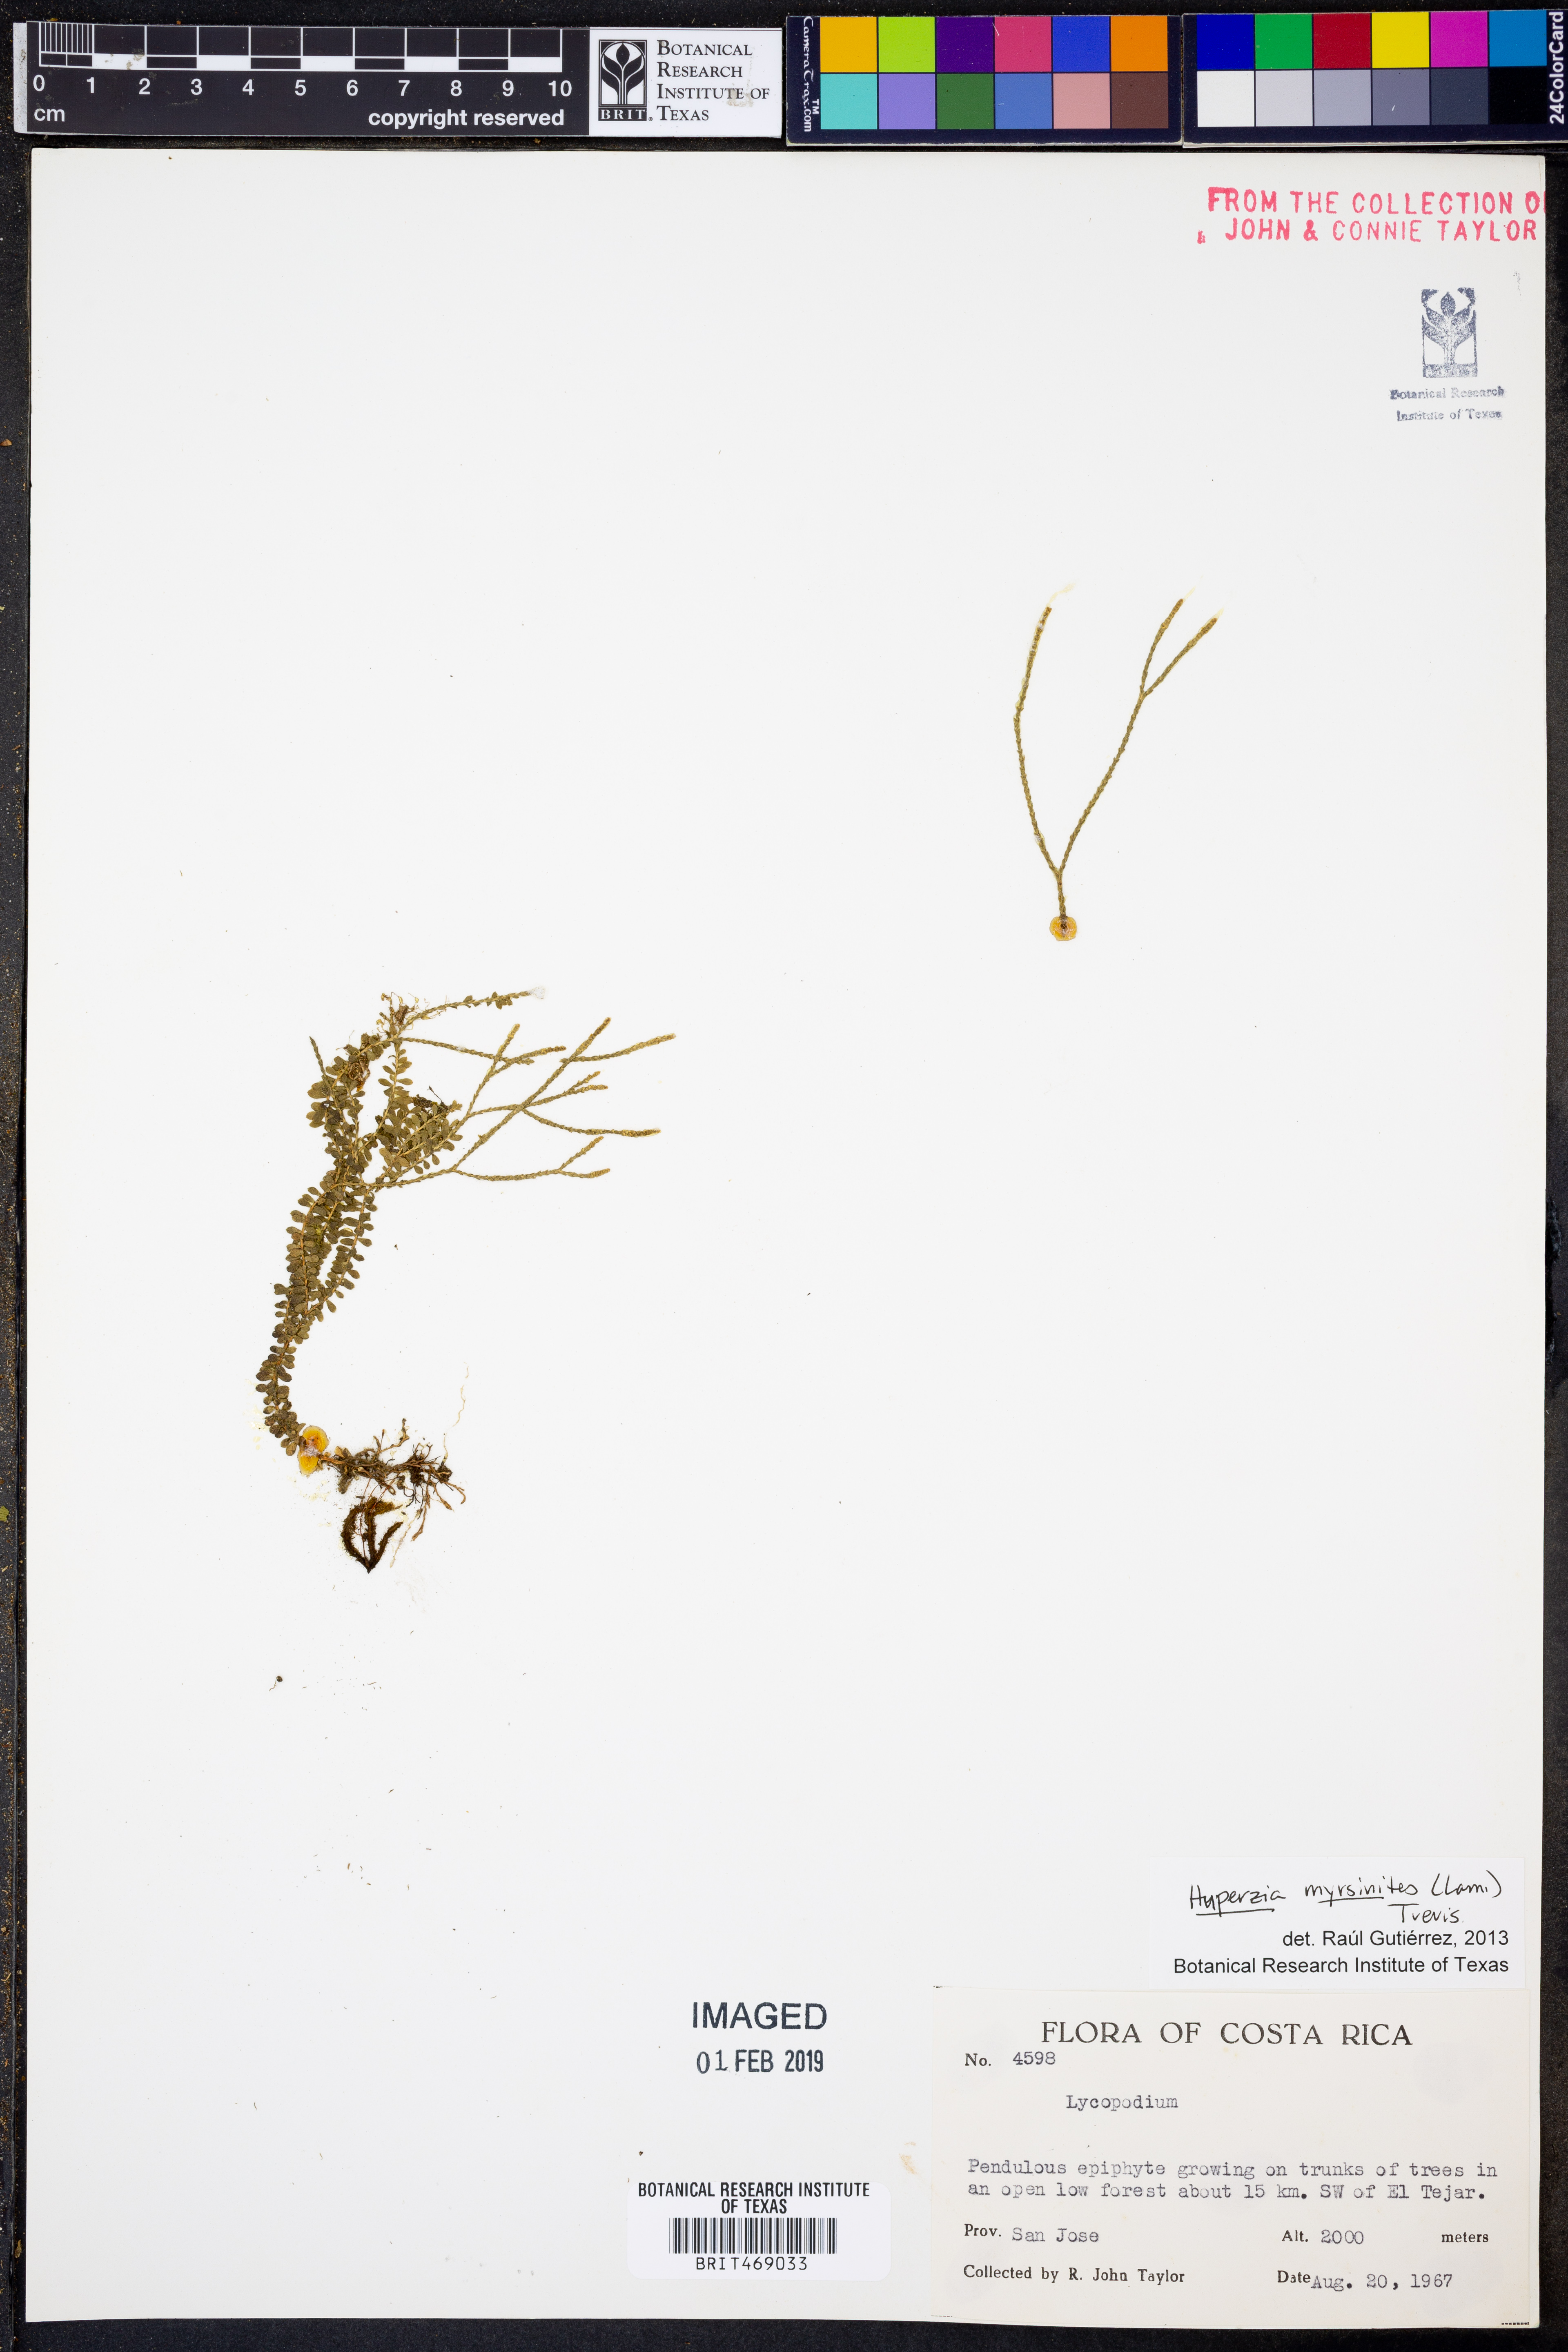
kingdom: Plantae
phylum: Tracheophyta
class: Lycopodiopsida
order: Lycopodiales
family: Lycopodiaceae
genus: Phlegmariurus
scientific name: Phlegmariurus myrsinites
